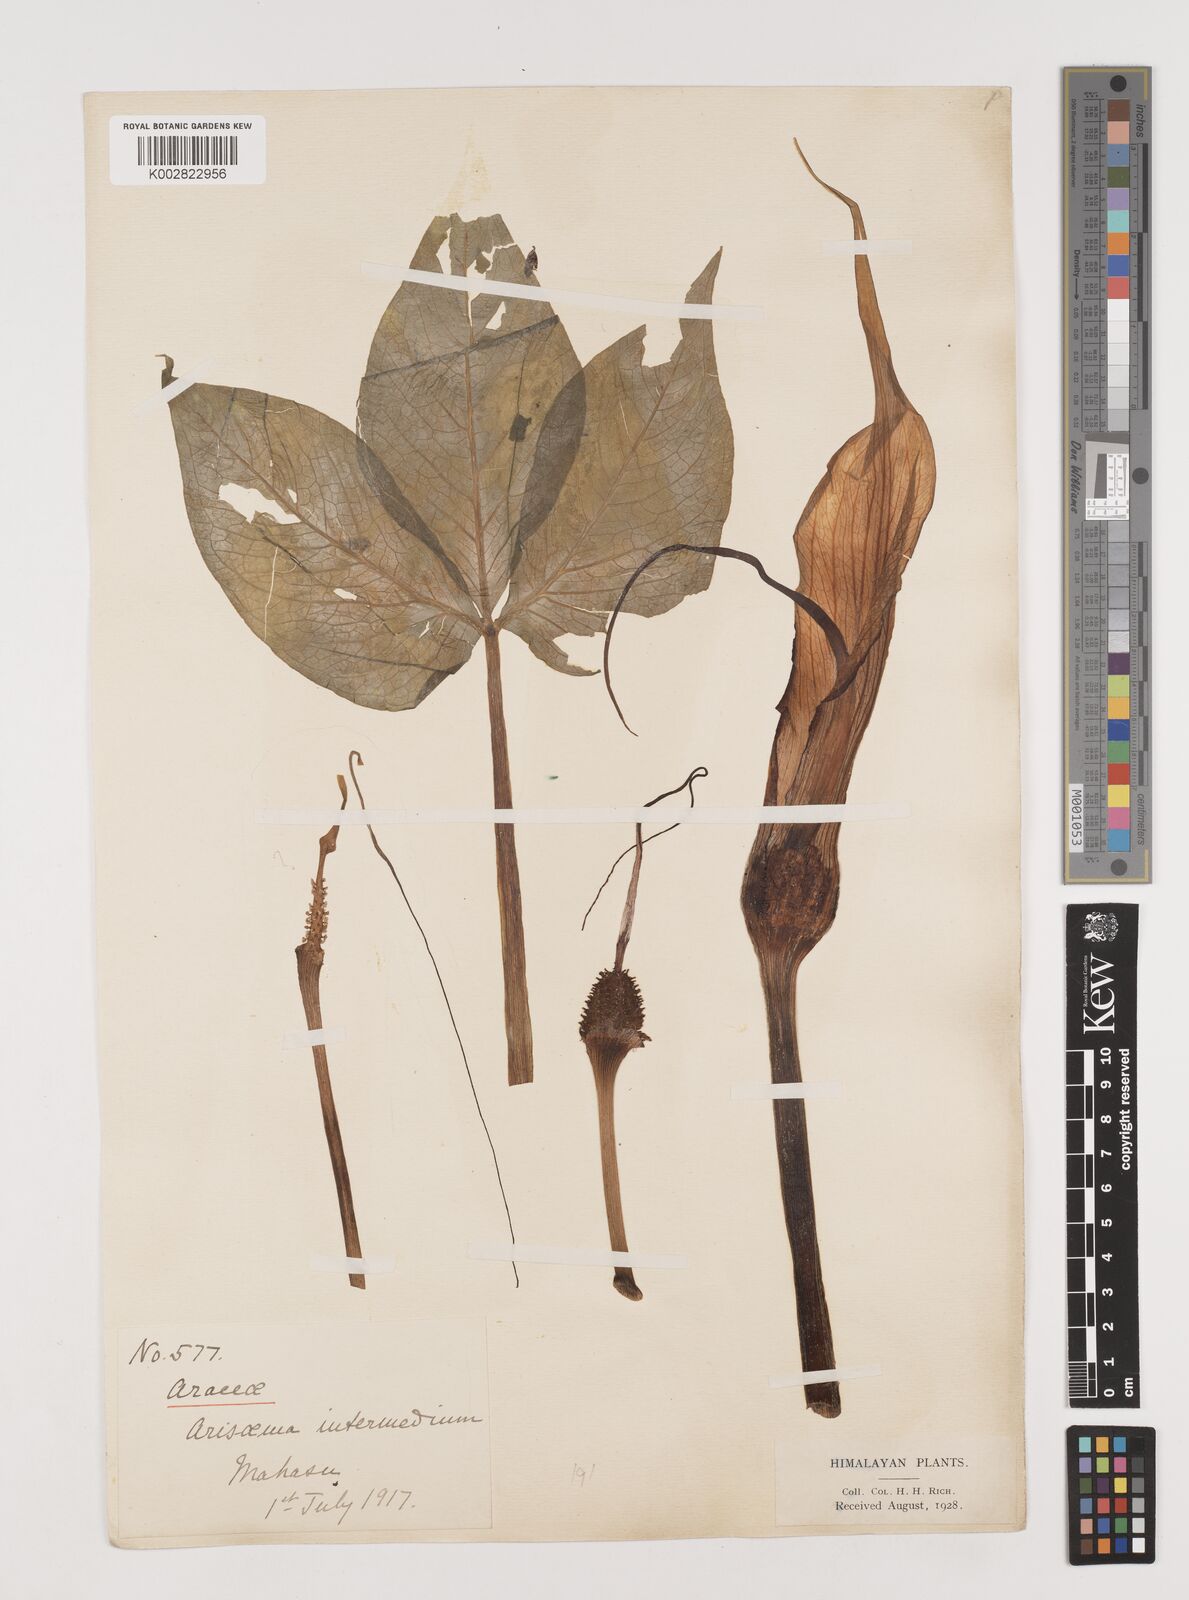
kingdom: Plantae
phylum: Tracheophyta
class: Liliopsida
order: Alismatales
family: Araceae
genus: Arisaema
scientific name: Arisaema intermedium
